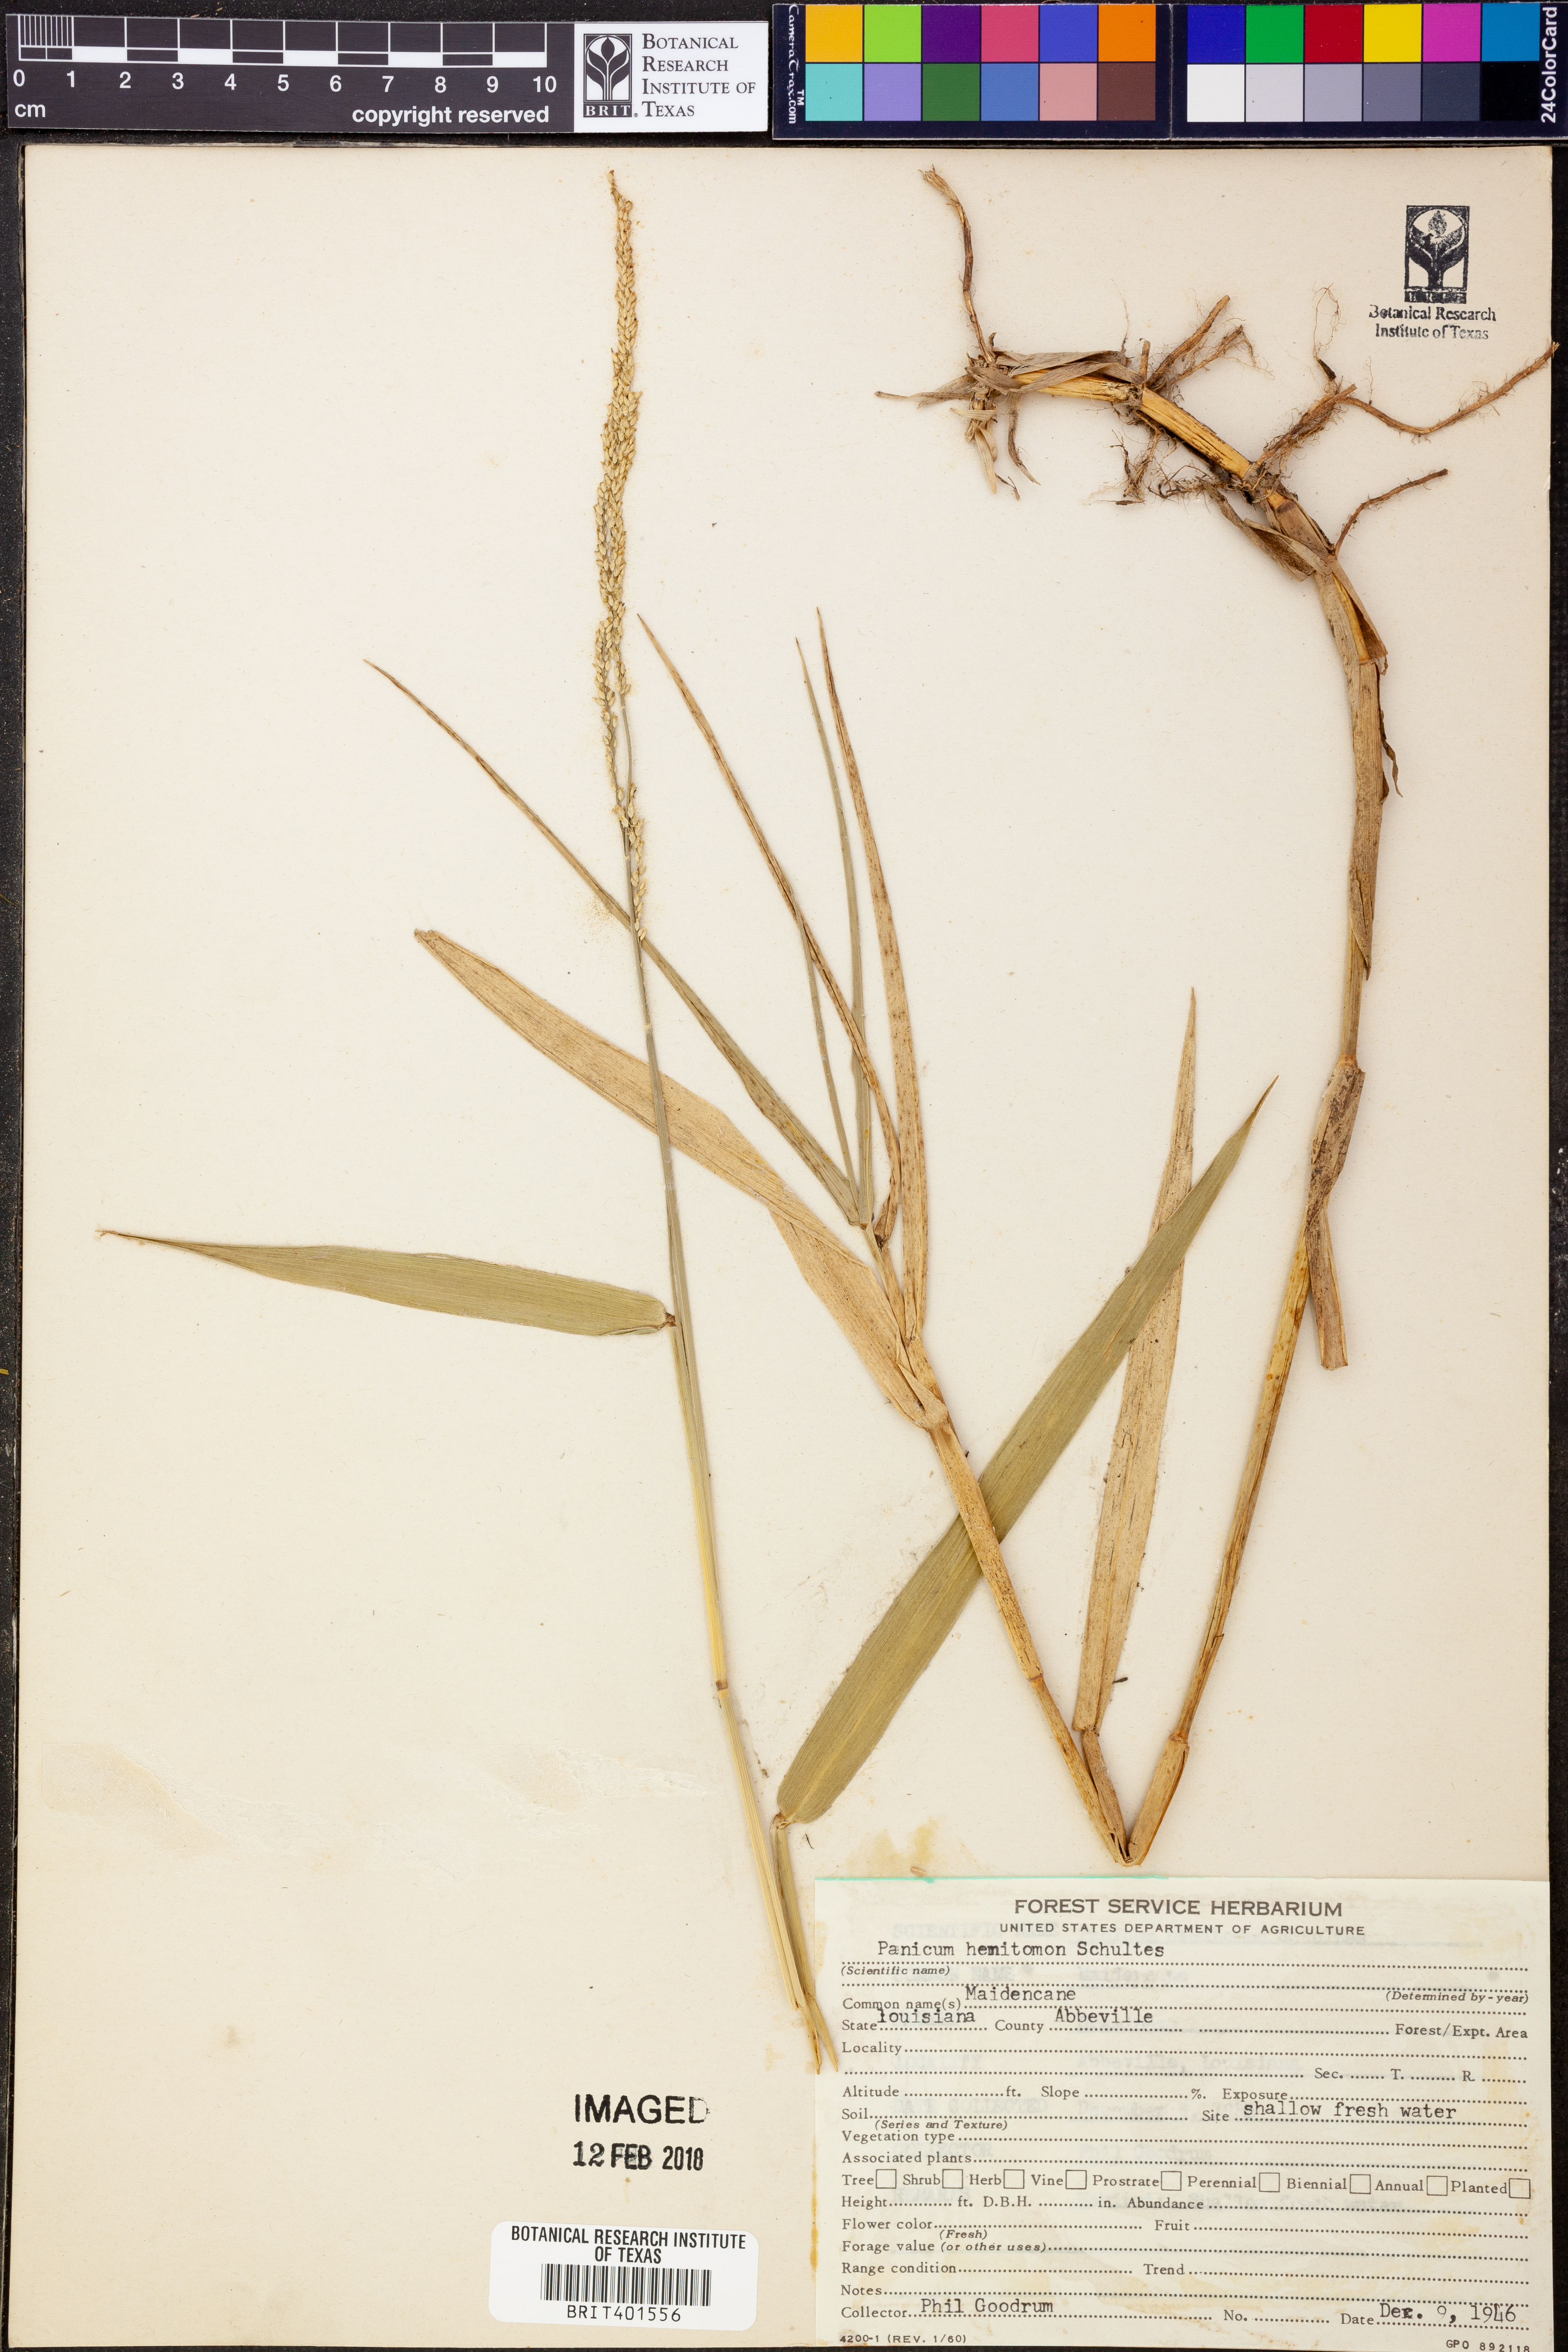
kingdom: Plantae
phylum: Tracheophyta
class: Liliopsida
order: Poales
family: Poaceae
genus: Panicum
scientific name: Panicum hemitomon
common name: Maidencane
